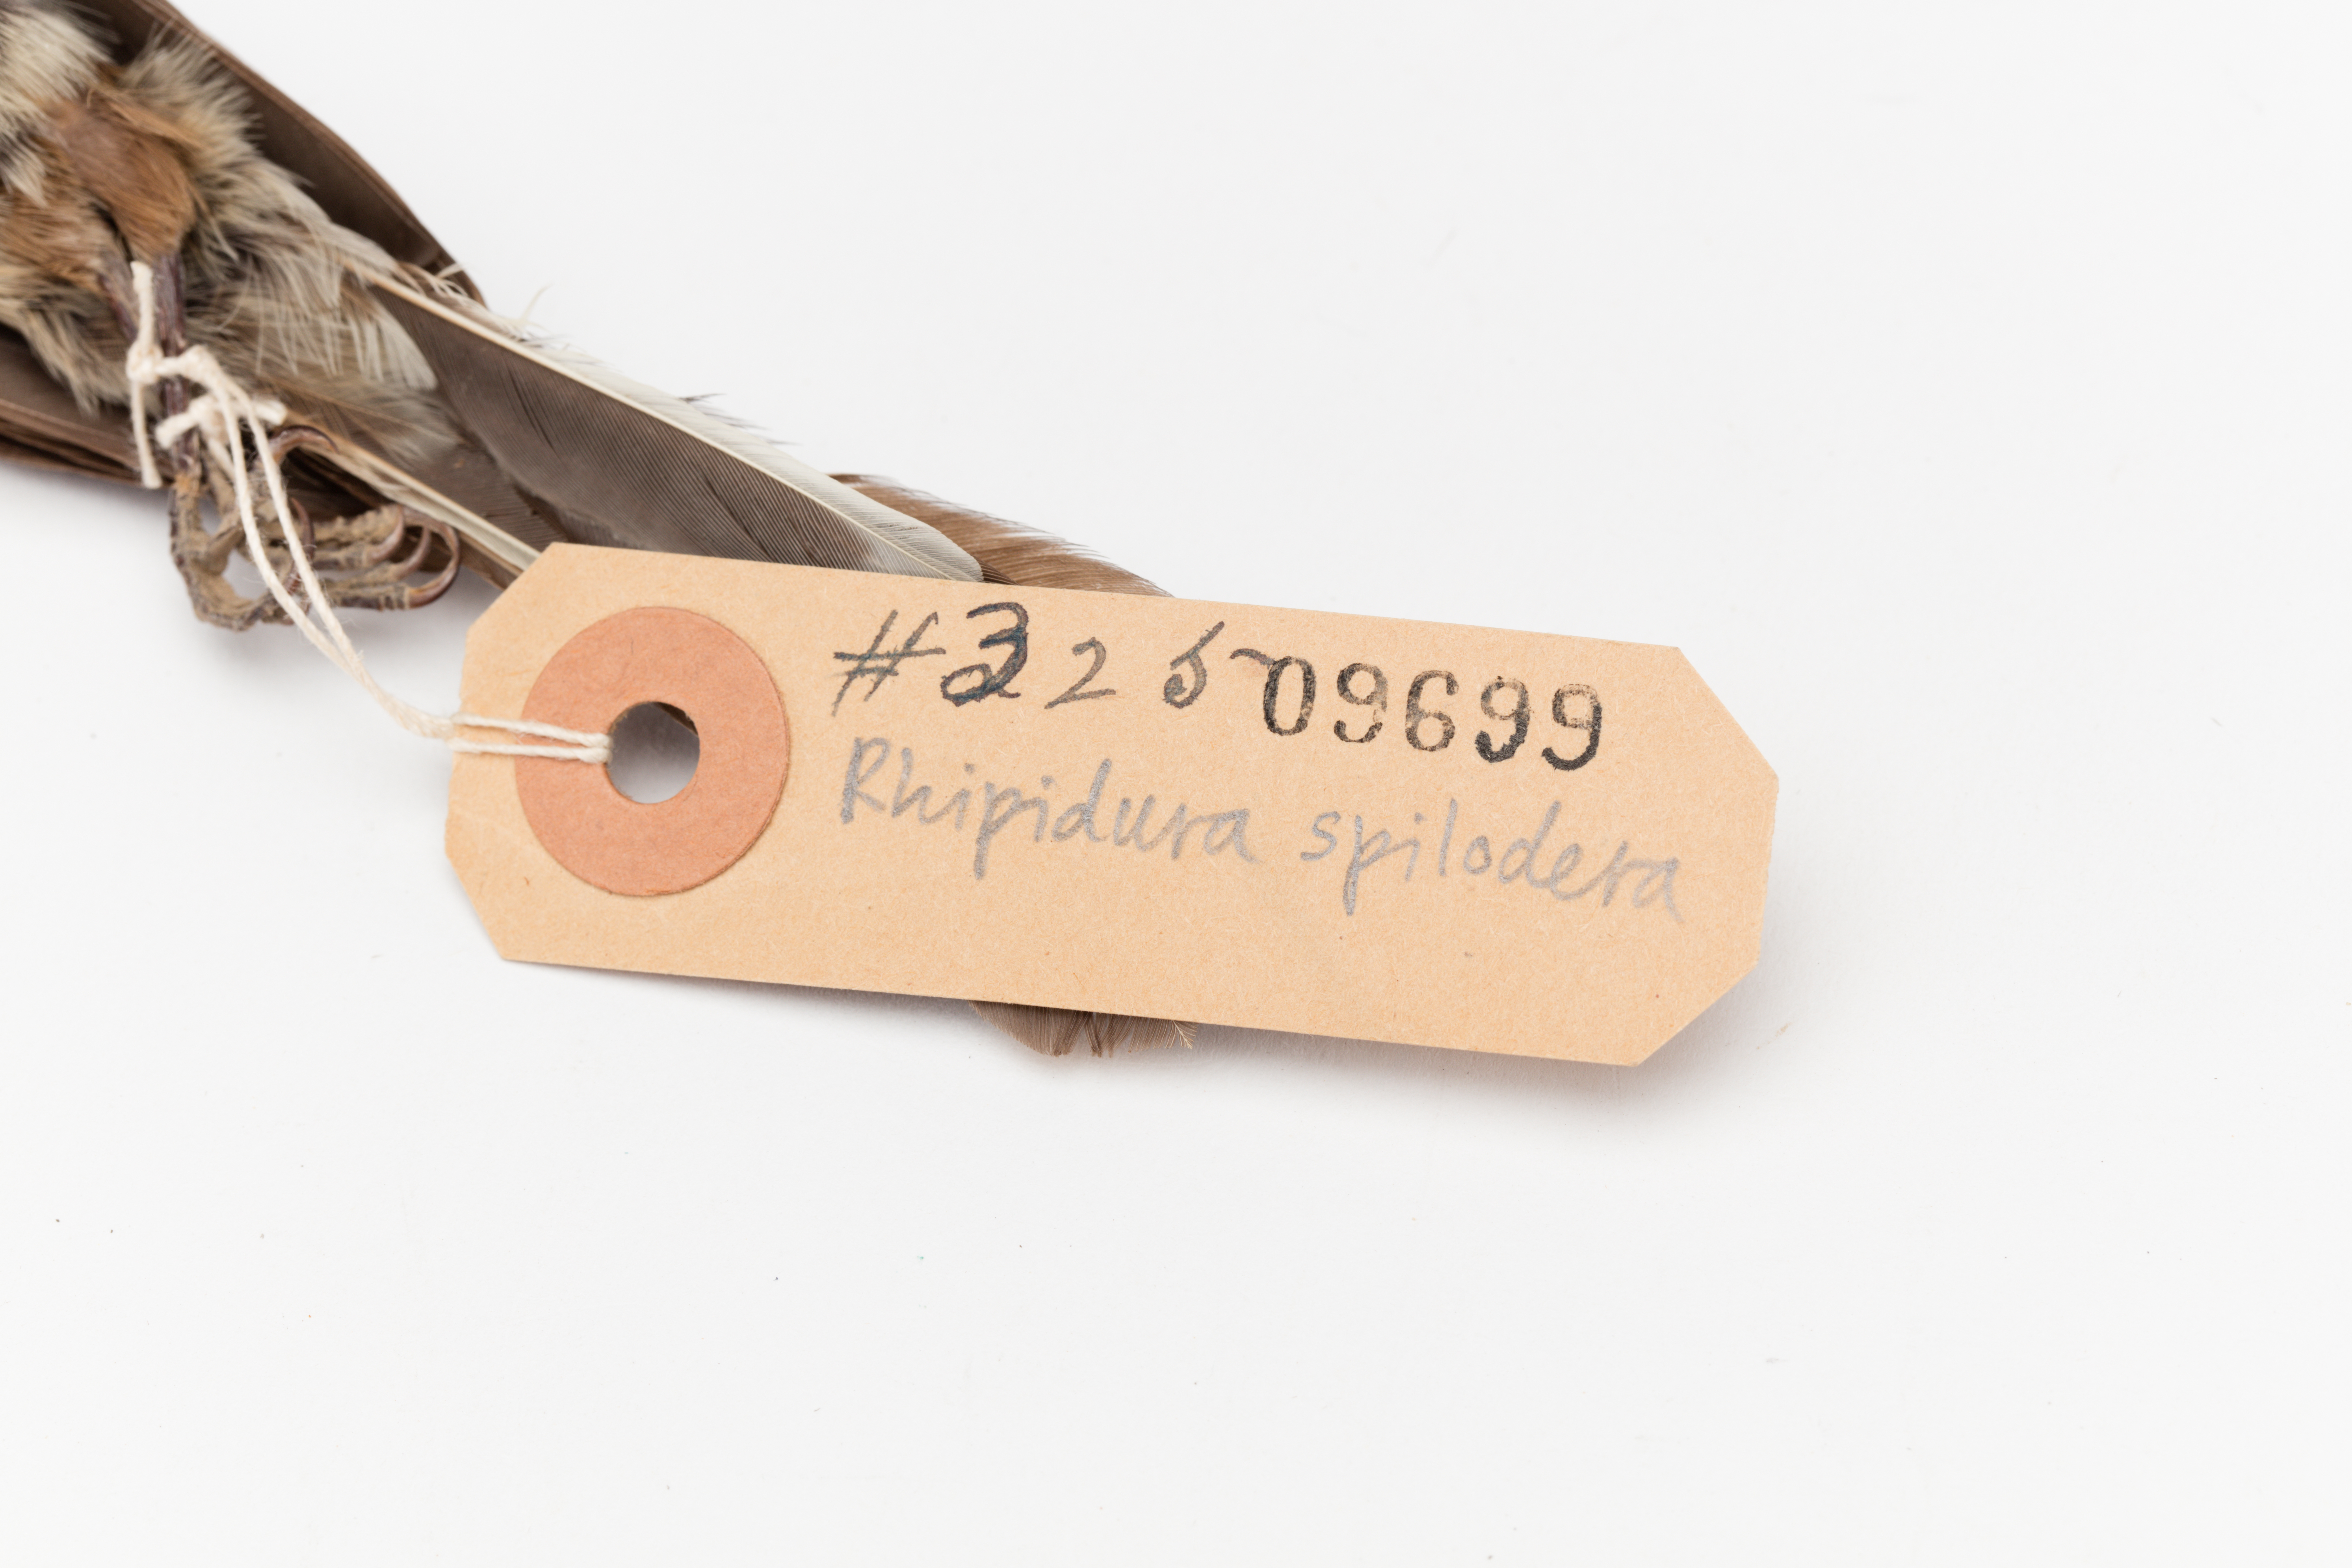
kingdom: Animalia
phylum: Chordata
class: Aves
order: Passeriformes
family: Rhipiduridae
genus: Rhipidura
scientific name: Rhipidura verreauxi
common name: Streaked fantail
